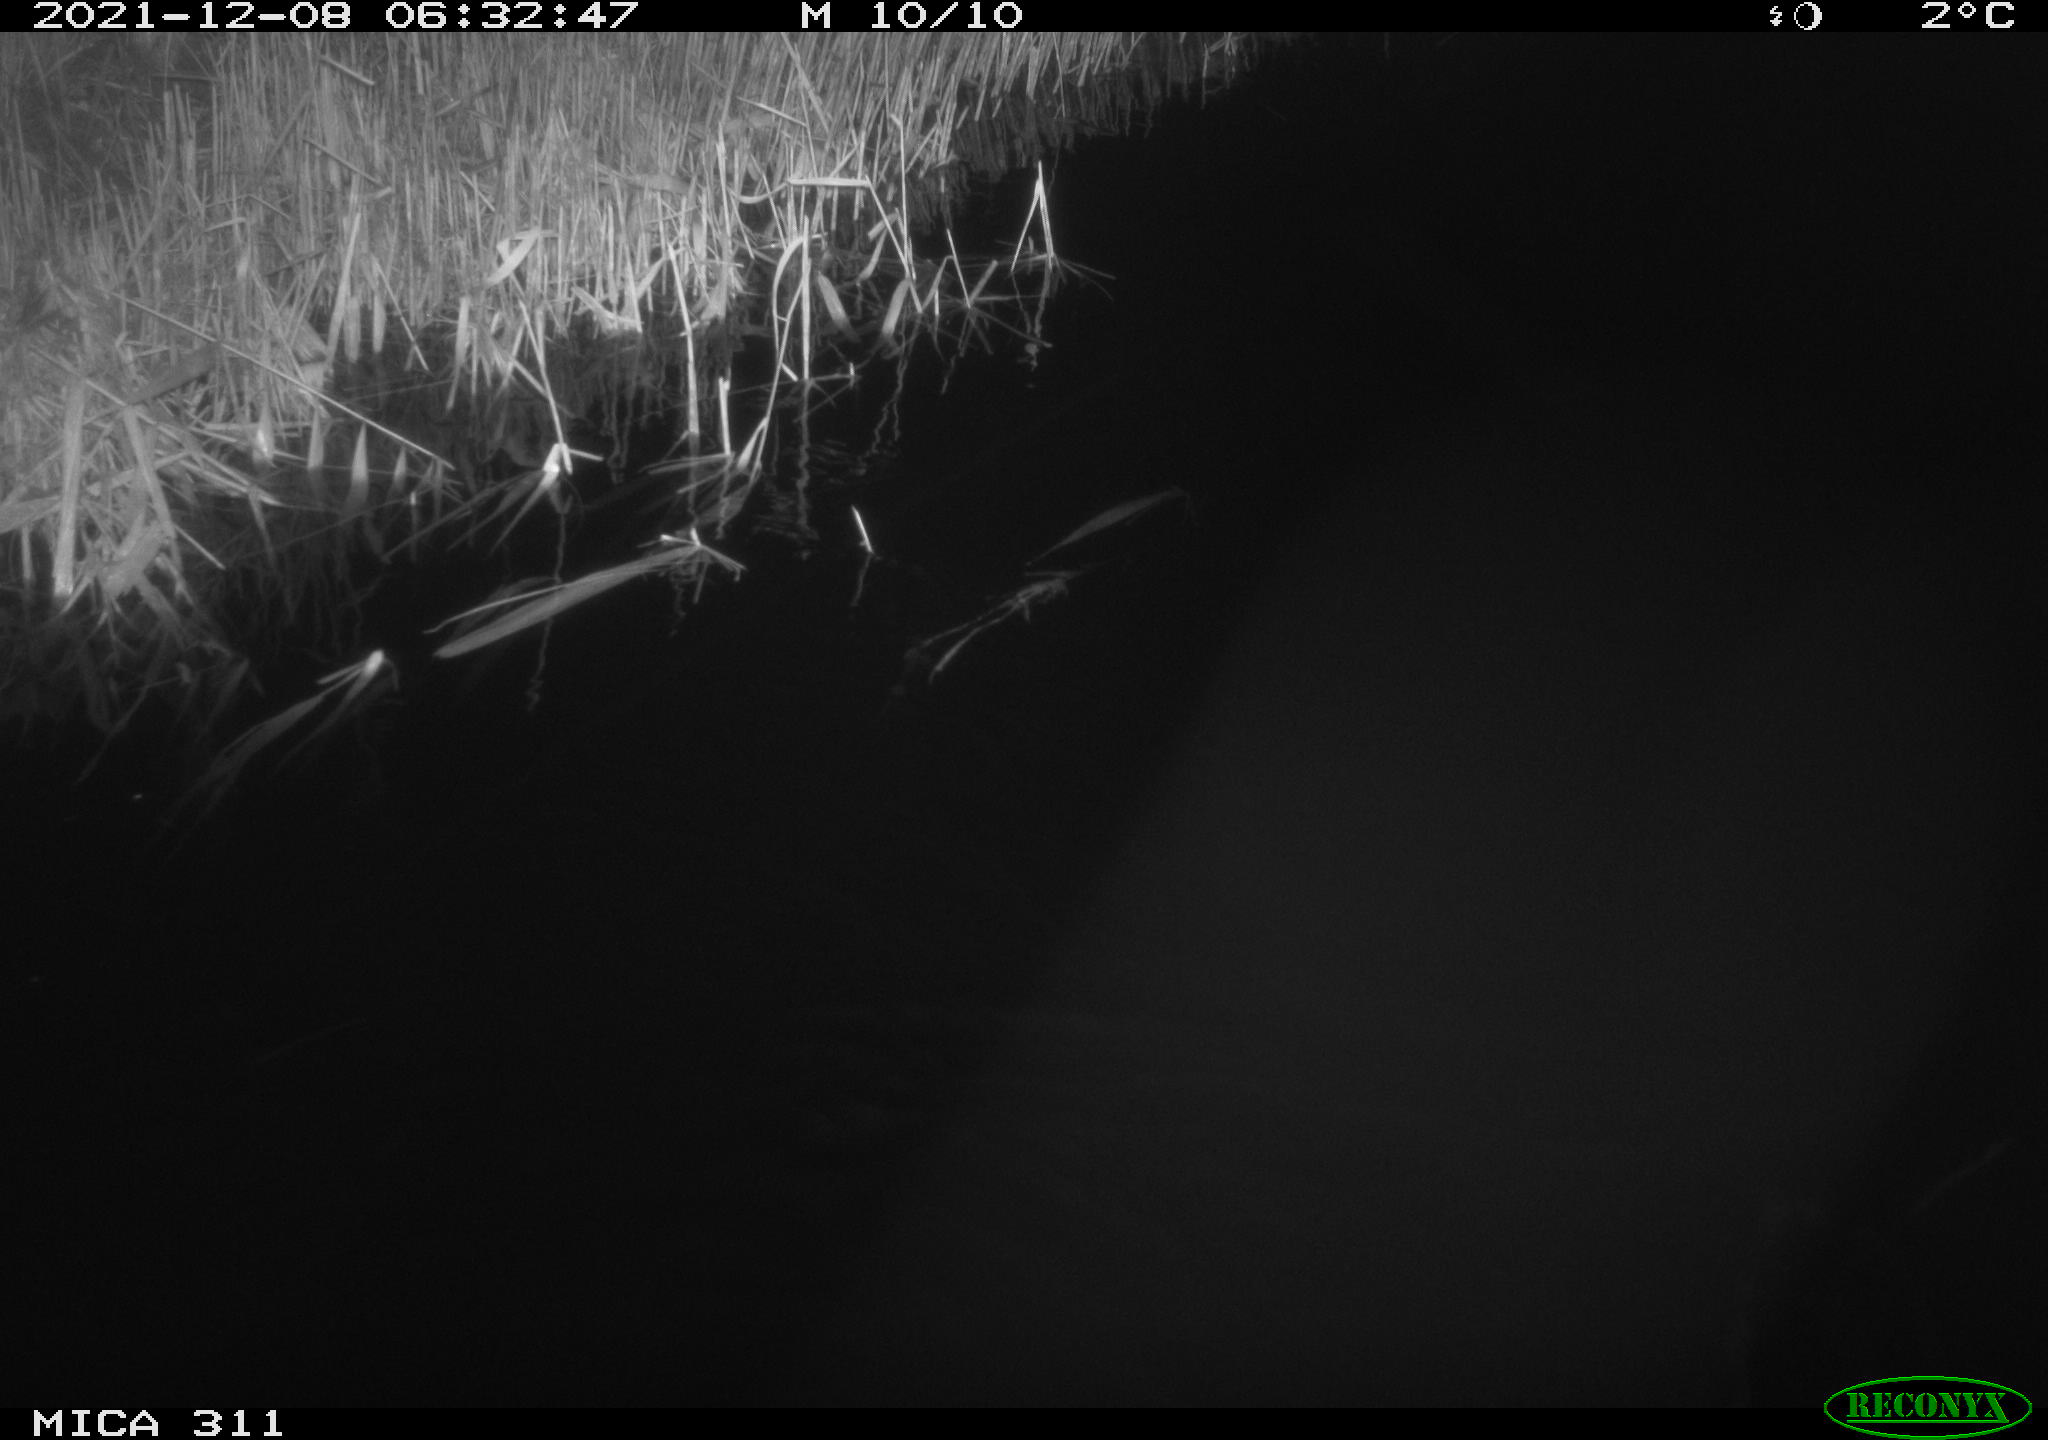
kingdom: Animalia
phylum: Chordata
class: Mammalia
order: Rodentia
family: Muridae
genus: Rattus
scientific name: Rattus norvegicus
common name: Brown rat
